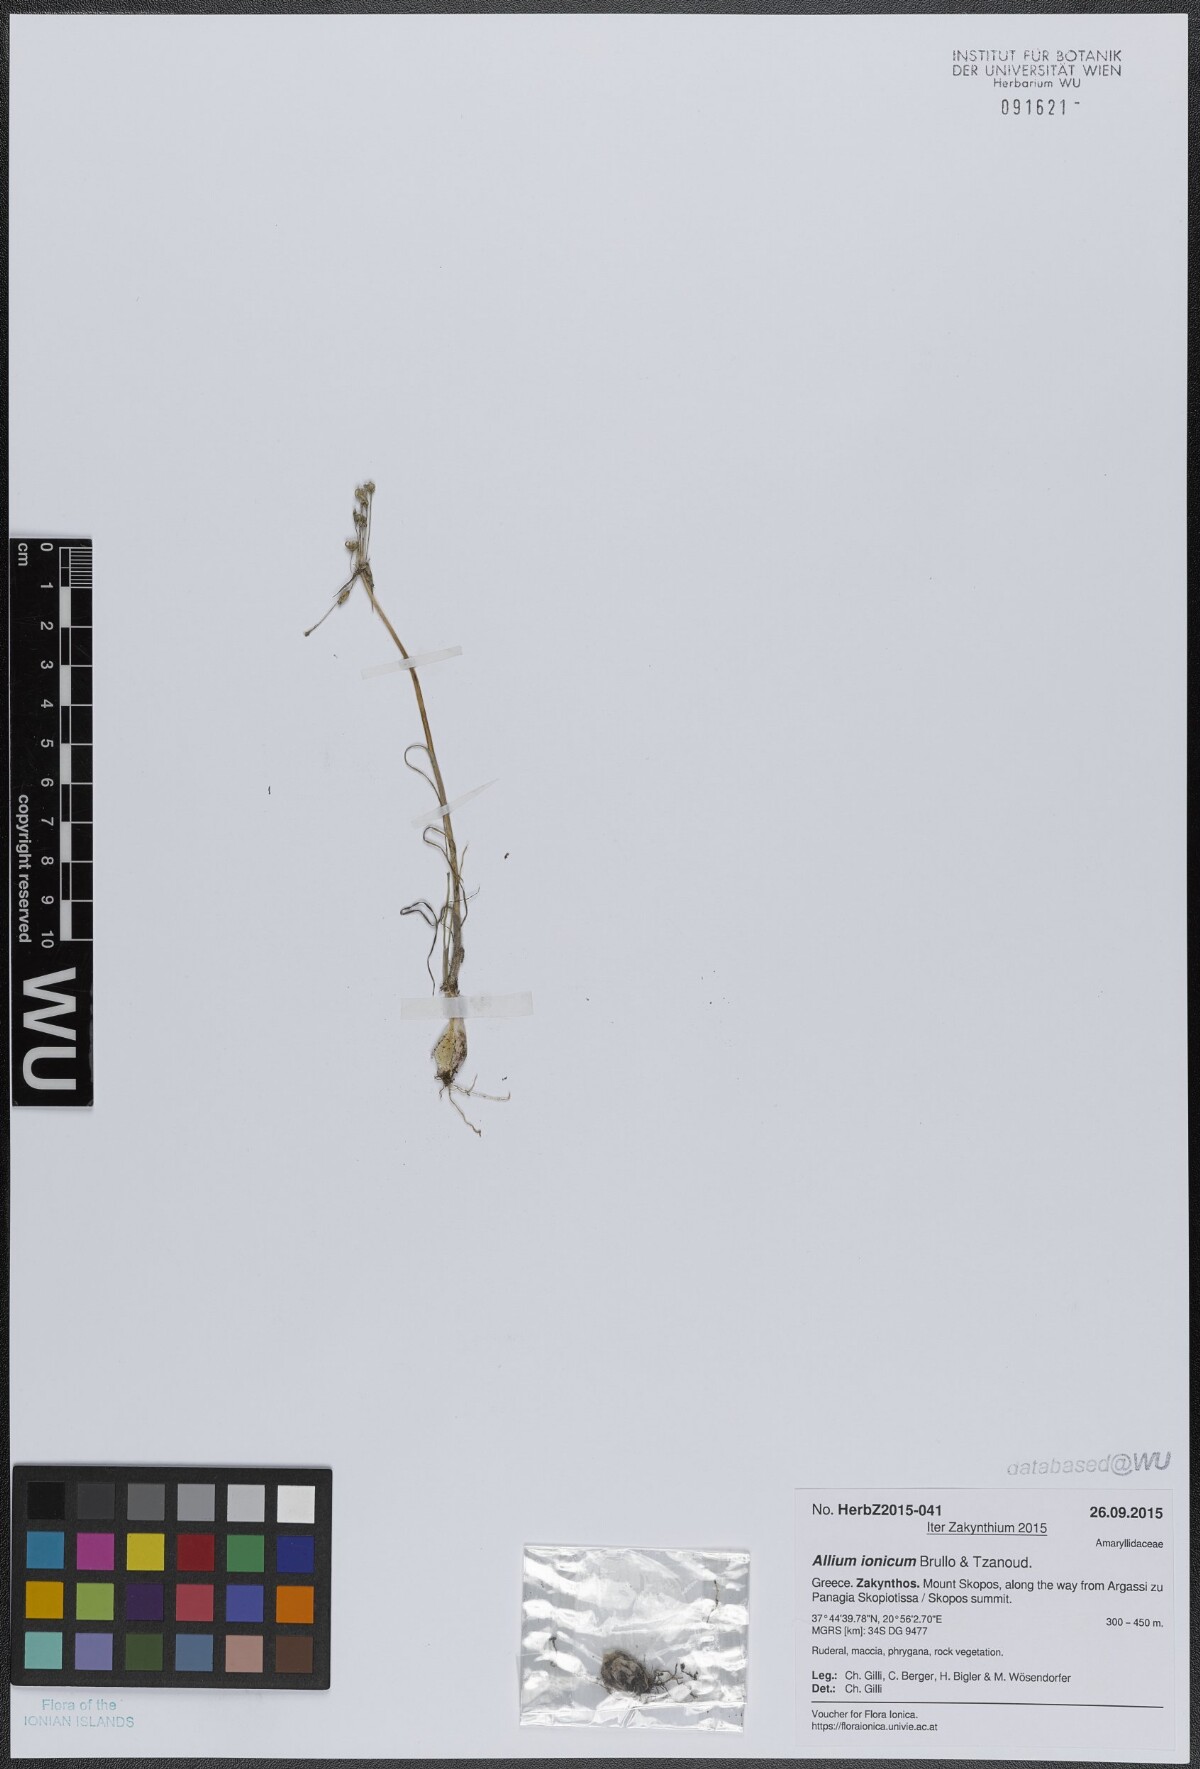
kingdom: Plantae
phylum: Tracheophyta
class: Liliopsida
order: Asparagales
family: Amaryllidaceae
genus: Allium
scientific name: Allium ionicum
